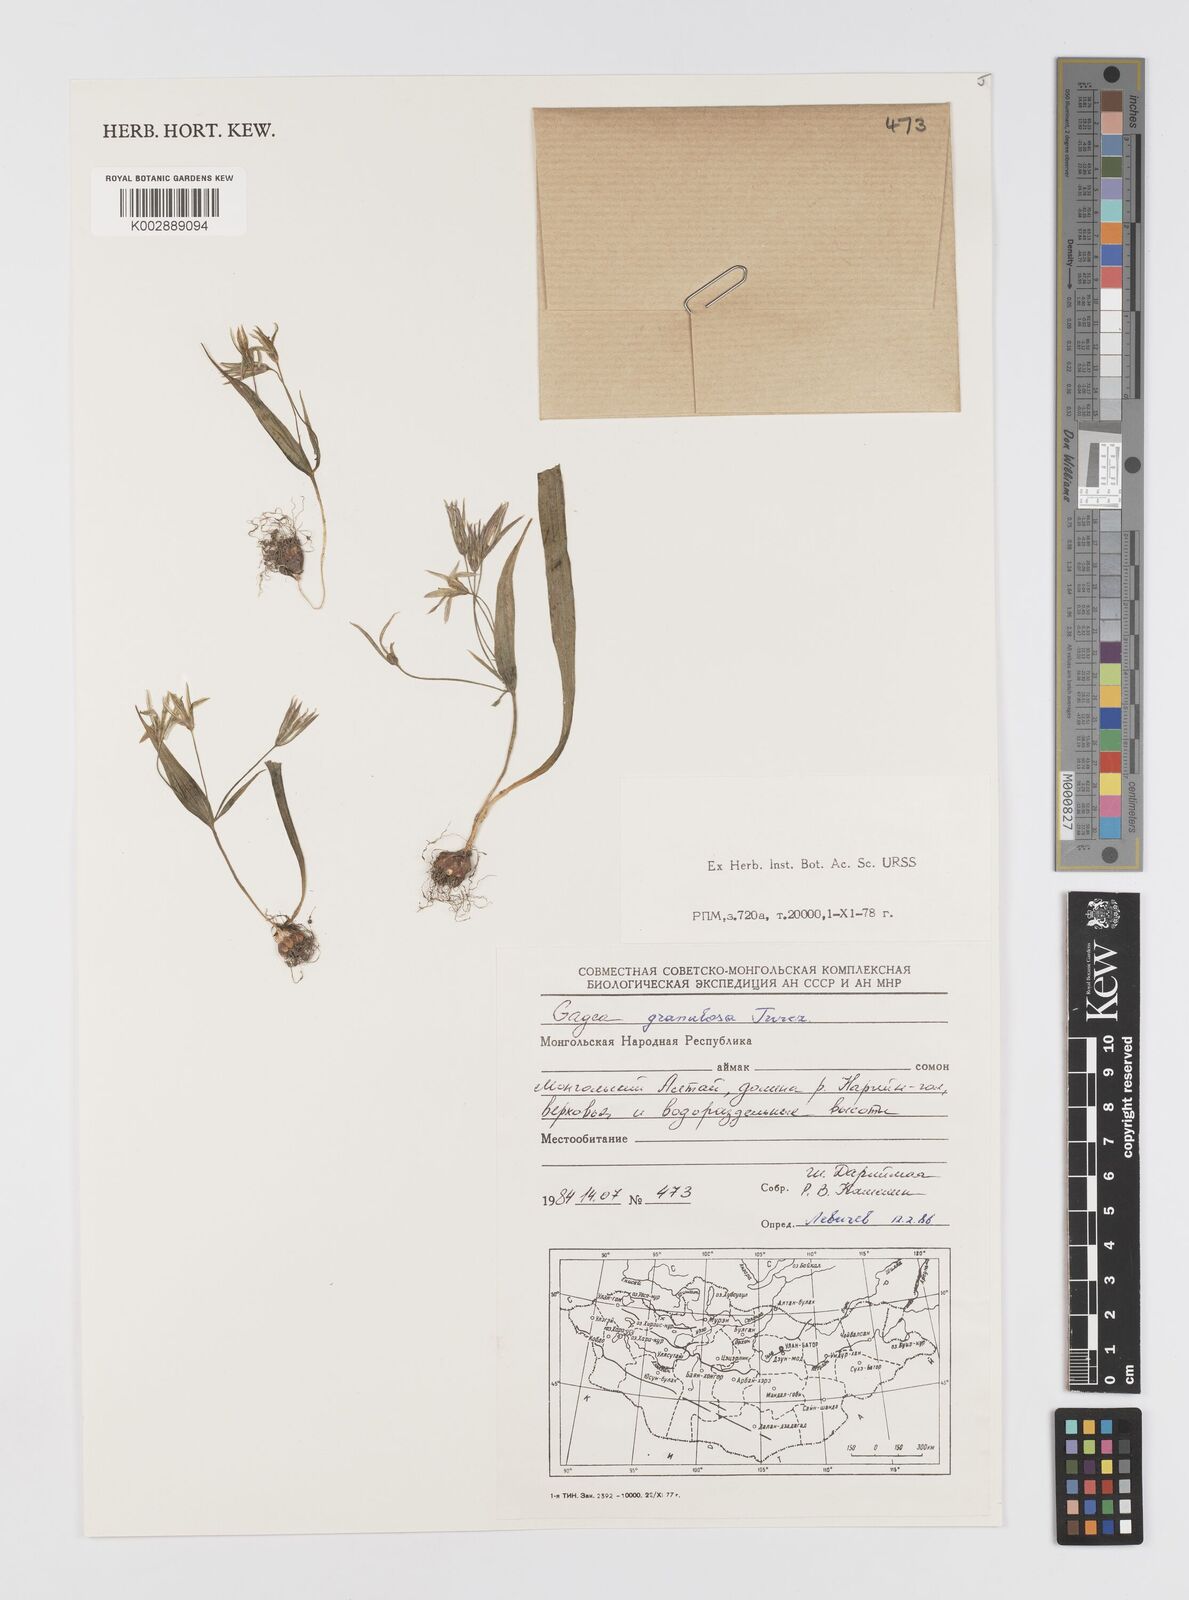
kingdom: Plantae
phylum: Tracheophyta
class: Liliopsida
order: Liliales
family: Liliaceae
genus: Gagea
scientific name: Gagea granulosa
